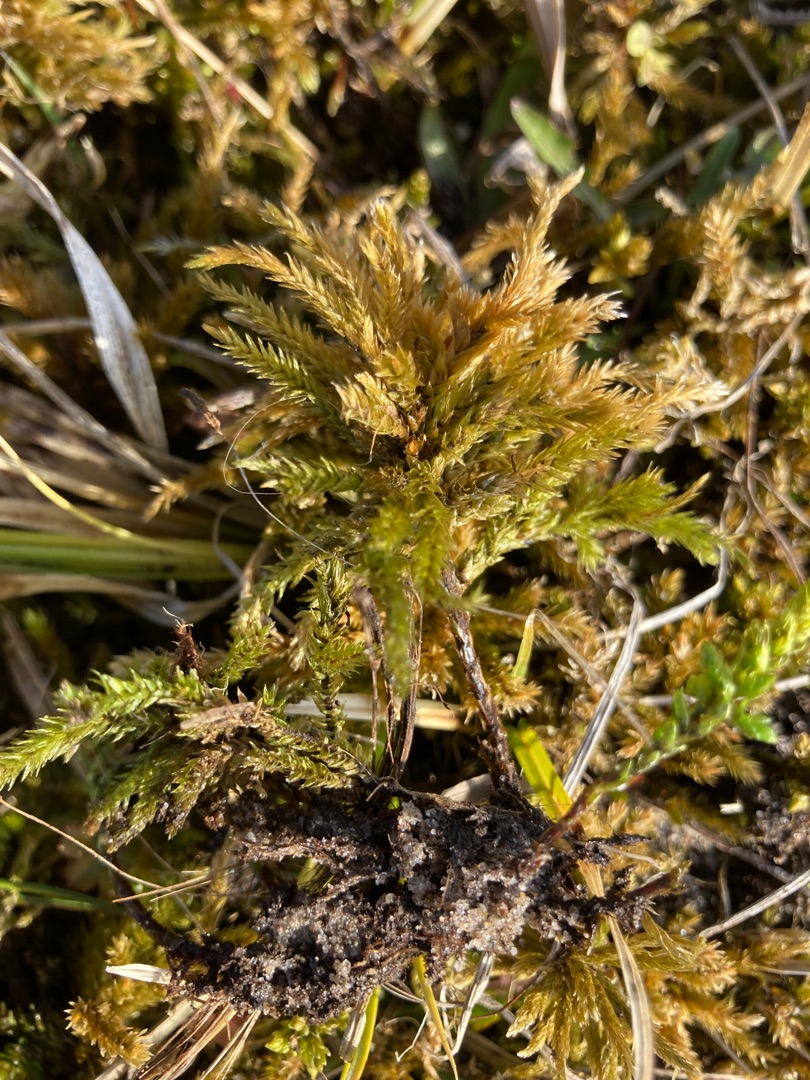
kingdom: Plantae
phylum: Bryophyta
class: Bryopsida
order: Hypnales
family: Climaciaceae
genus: Climacium
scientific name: Climacium dendroides
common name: Stor engkost
